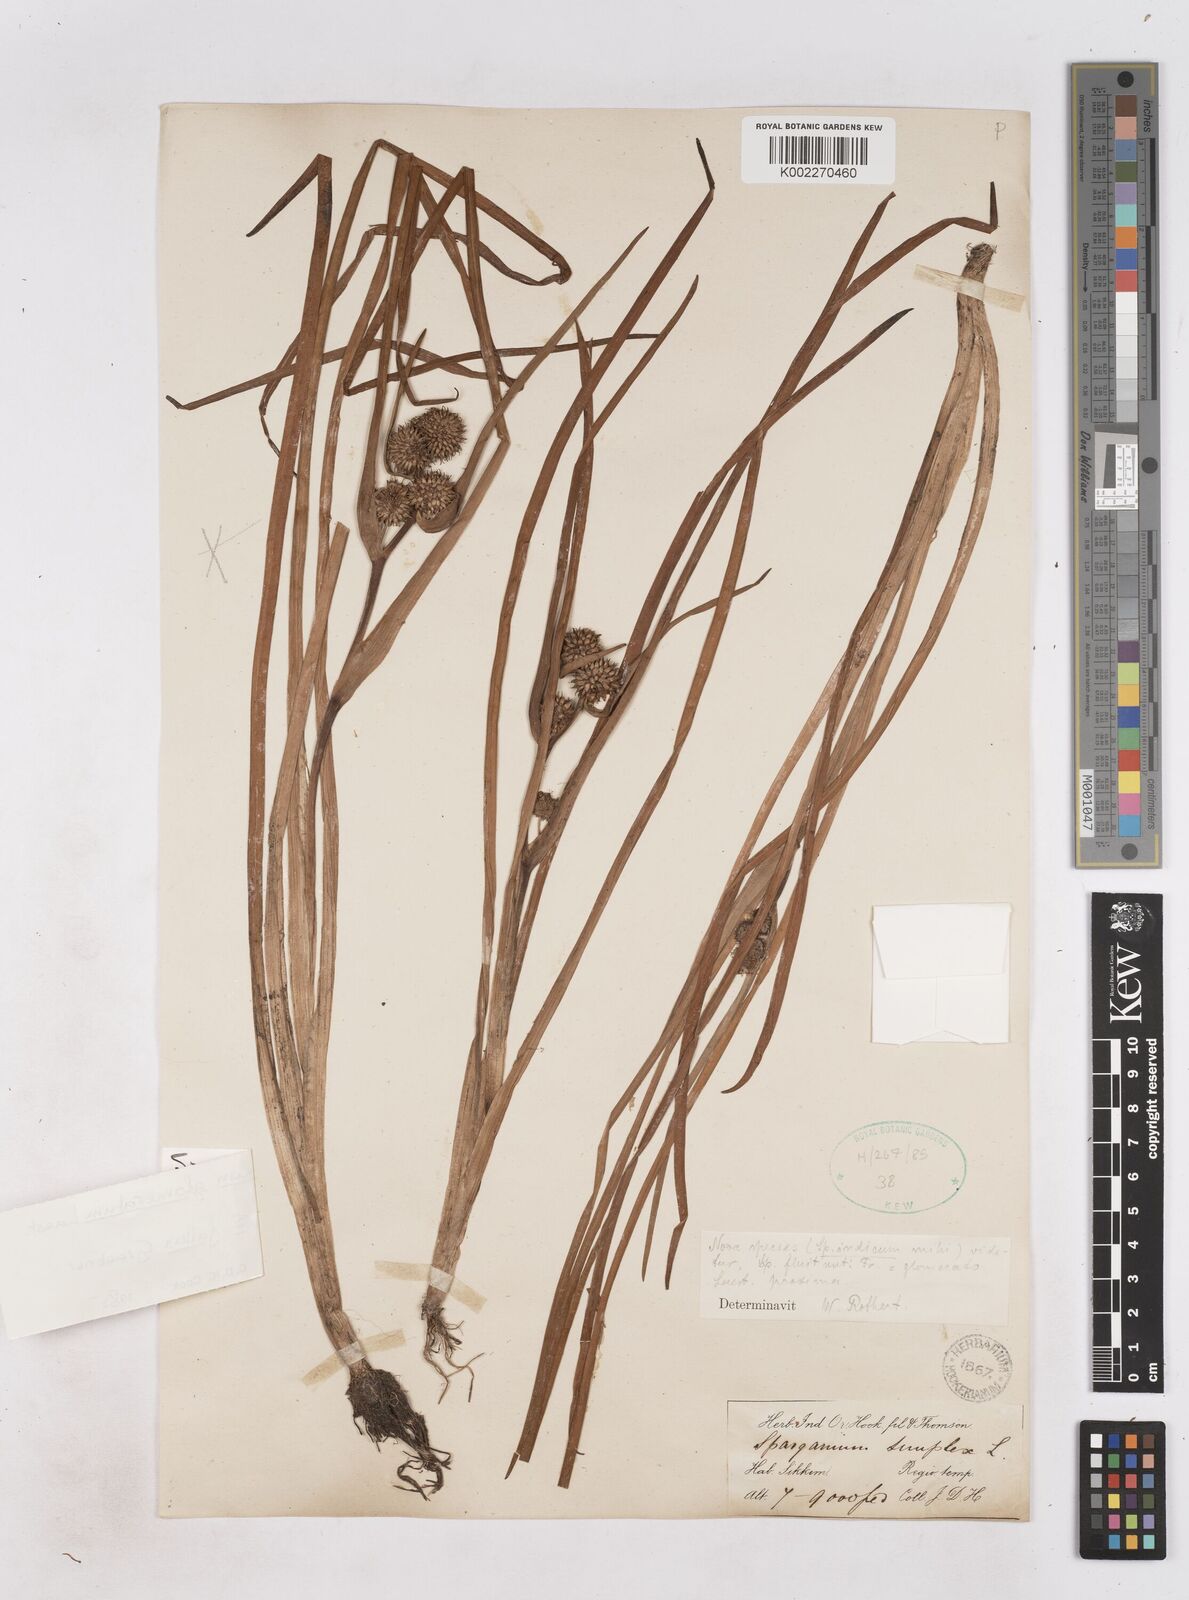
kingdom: Plantae
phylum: Tracheophyta
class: Liliopsida
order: Poales
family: Typhaceae
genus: Sparganium
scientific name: Sparganium fallax
